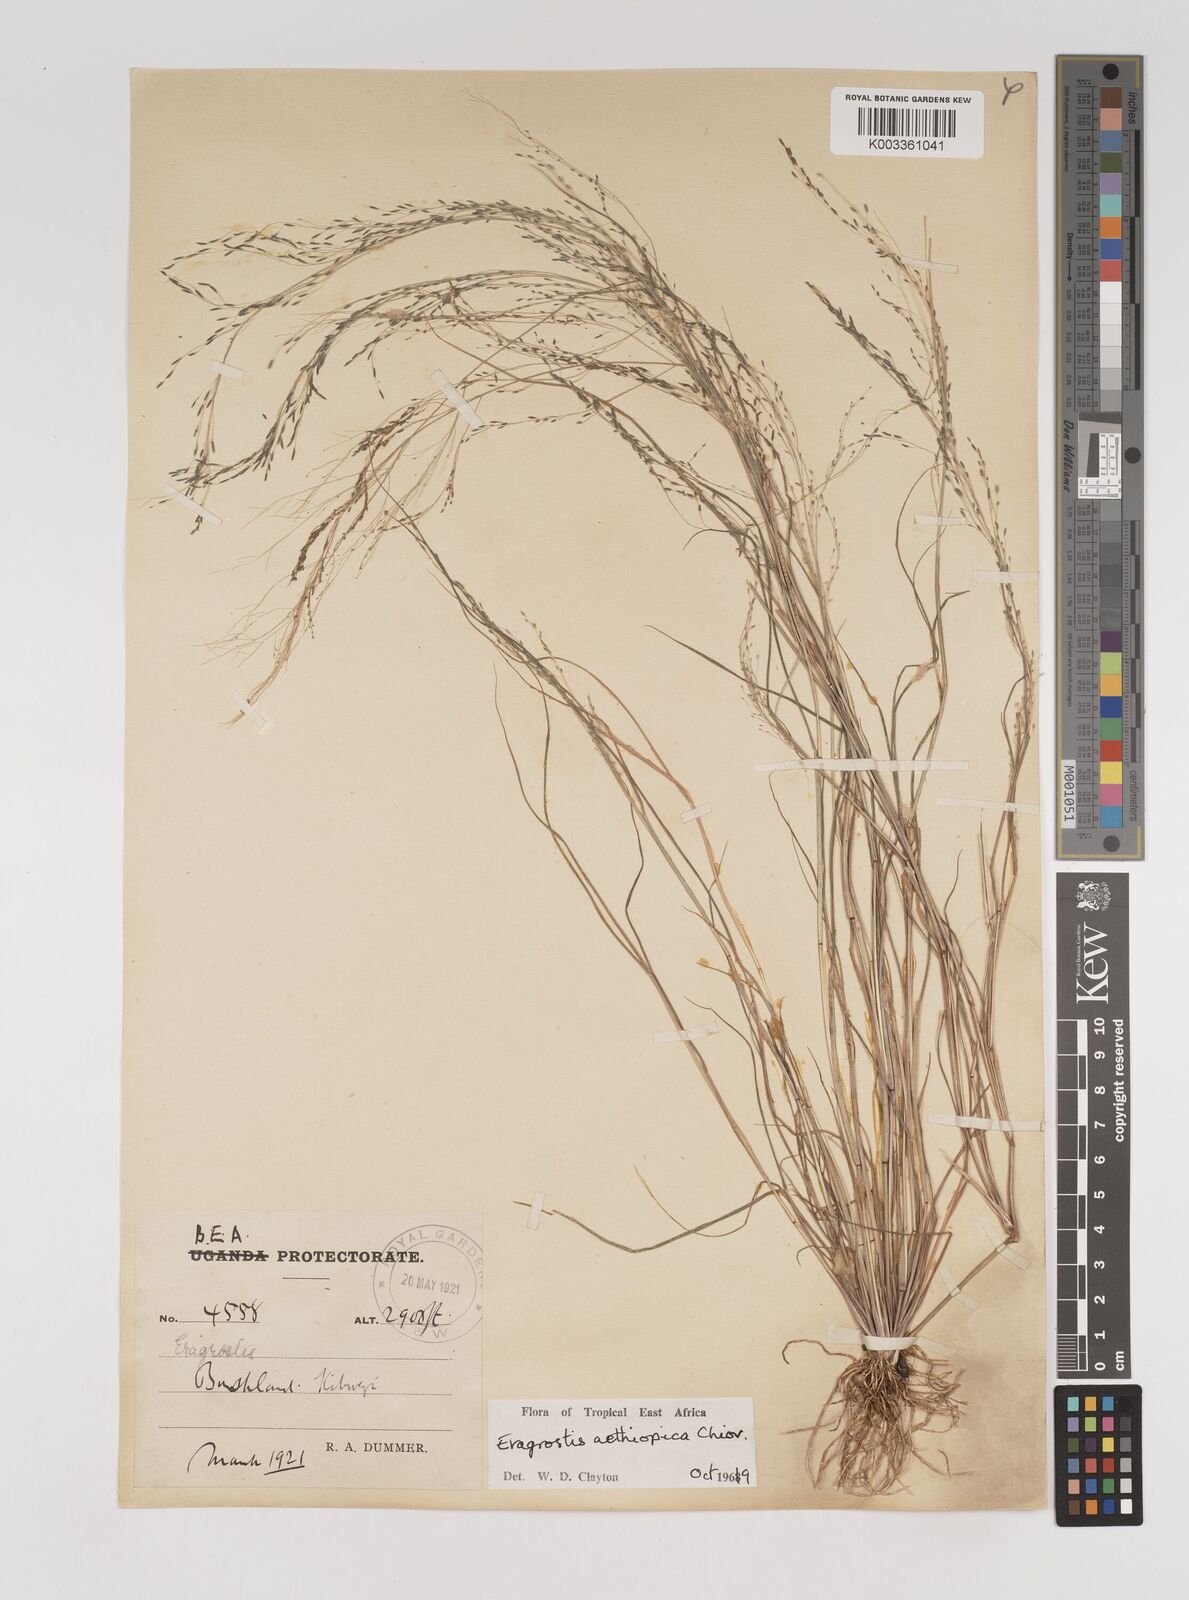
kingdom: Plantae
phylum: Tracheophyta
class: Liliopsida
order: Poales
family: Poaceae
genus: Eragrostis
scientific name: Eragrostis aethiopica
